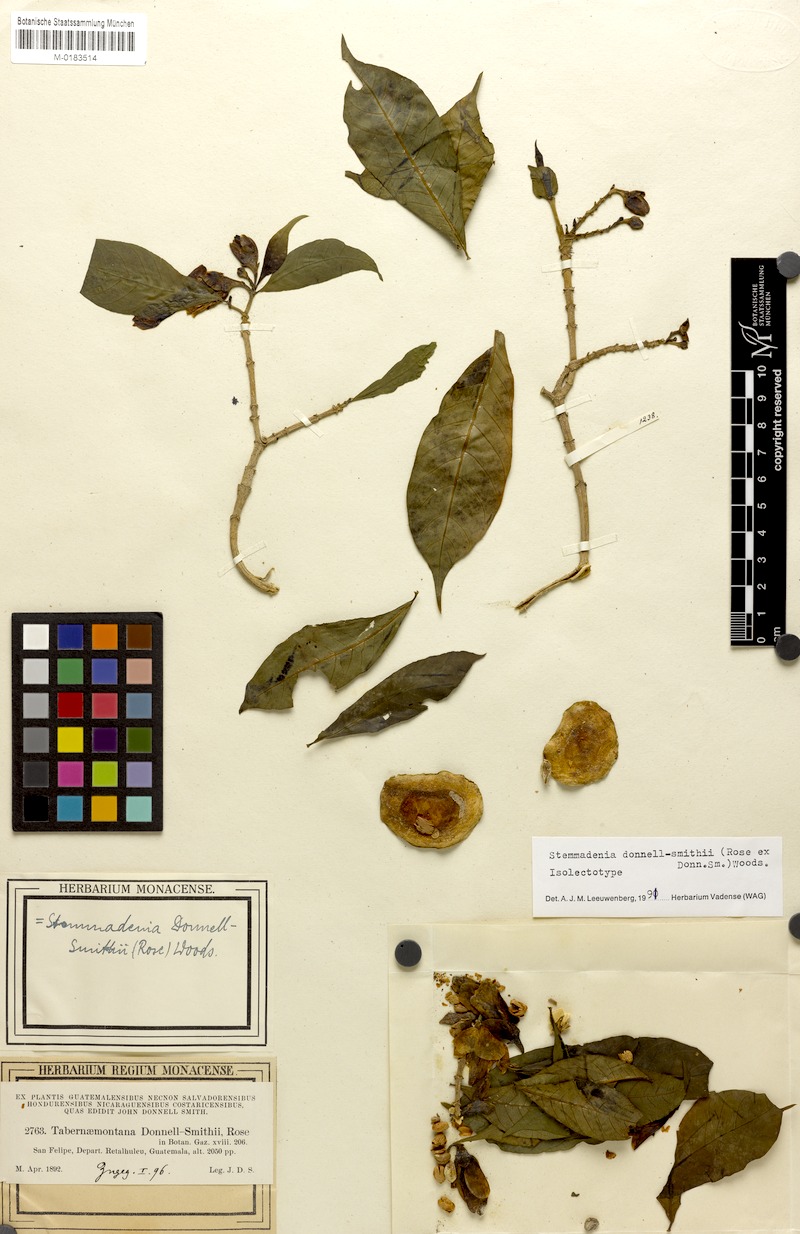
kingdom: Plantae
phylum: Tracheophyta
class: Magnoliopsida
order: Gentianales
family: Apocynaceae
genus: Tabernaemontana
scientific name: Tabernaemontana donnell-smithii
